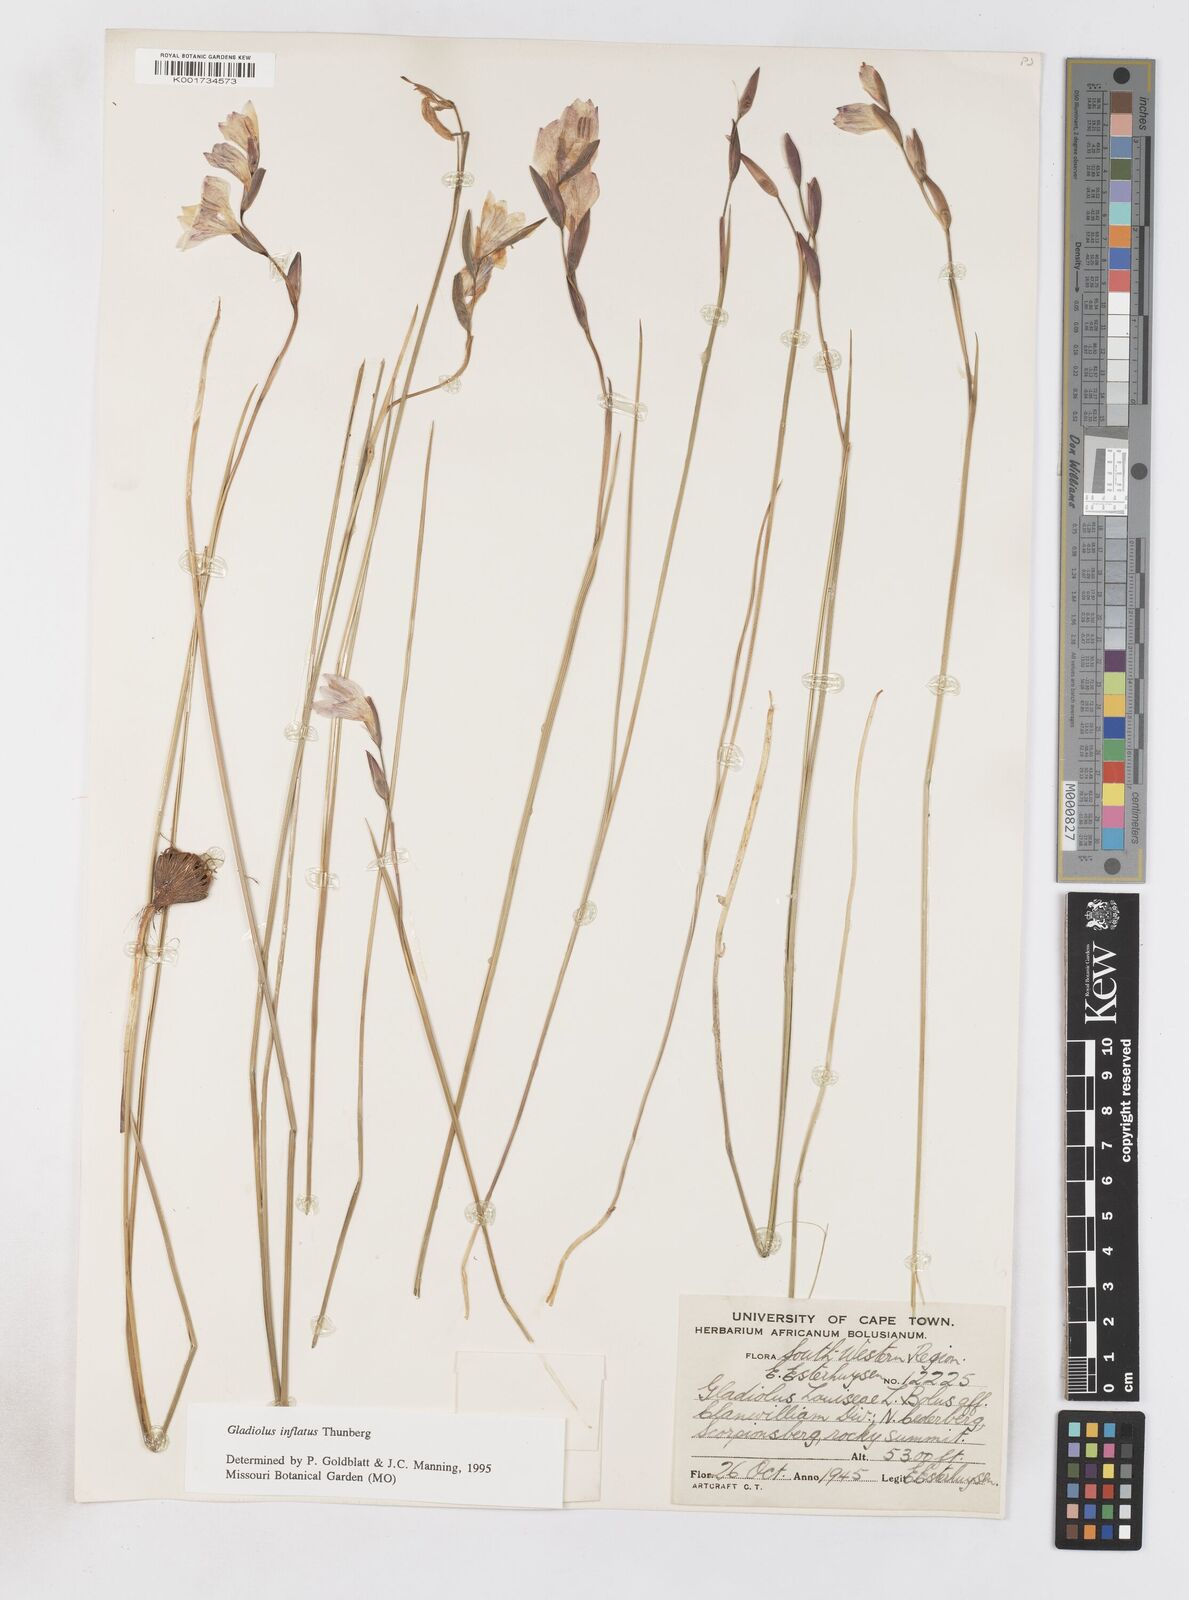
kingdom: Plantae
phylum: Tracheophyta
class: Liliopsida
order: Asparagales
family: Iridaceae
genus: Gladiolus
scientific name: Gladiolus inflatus
